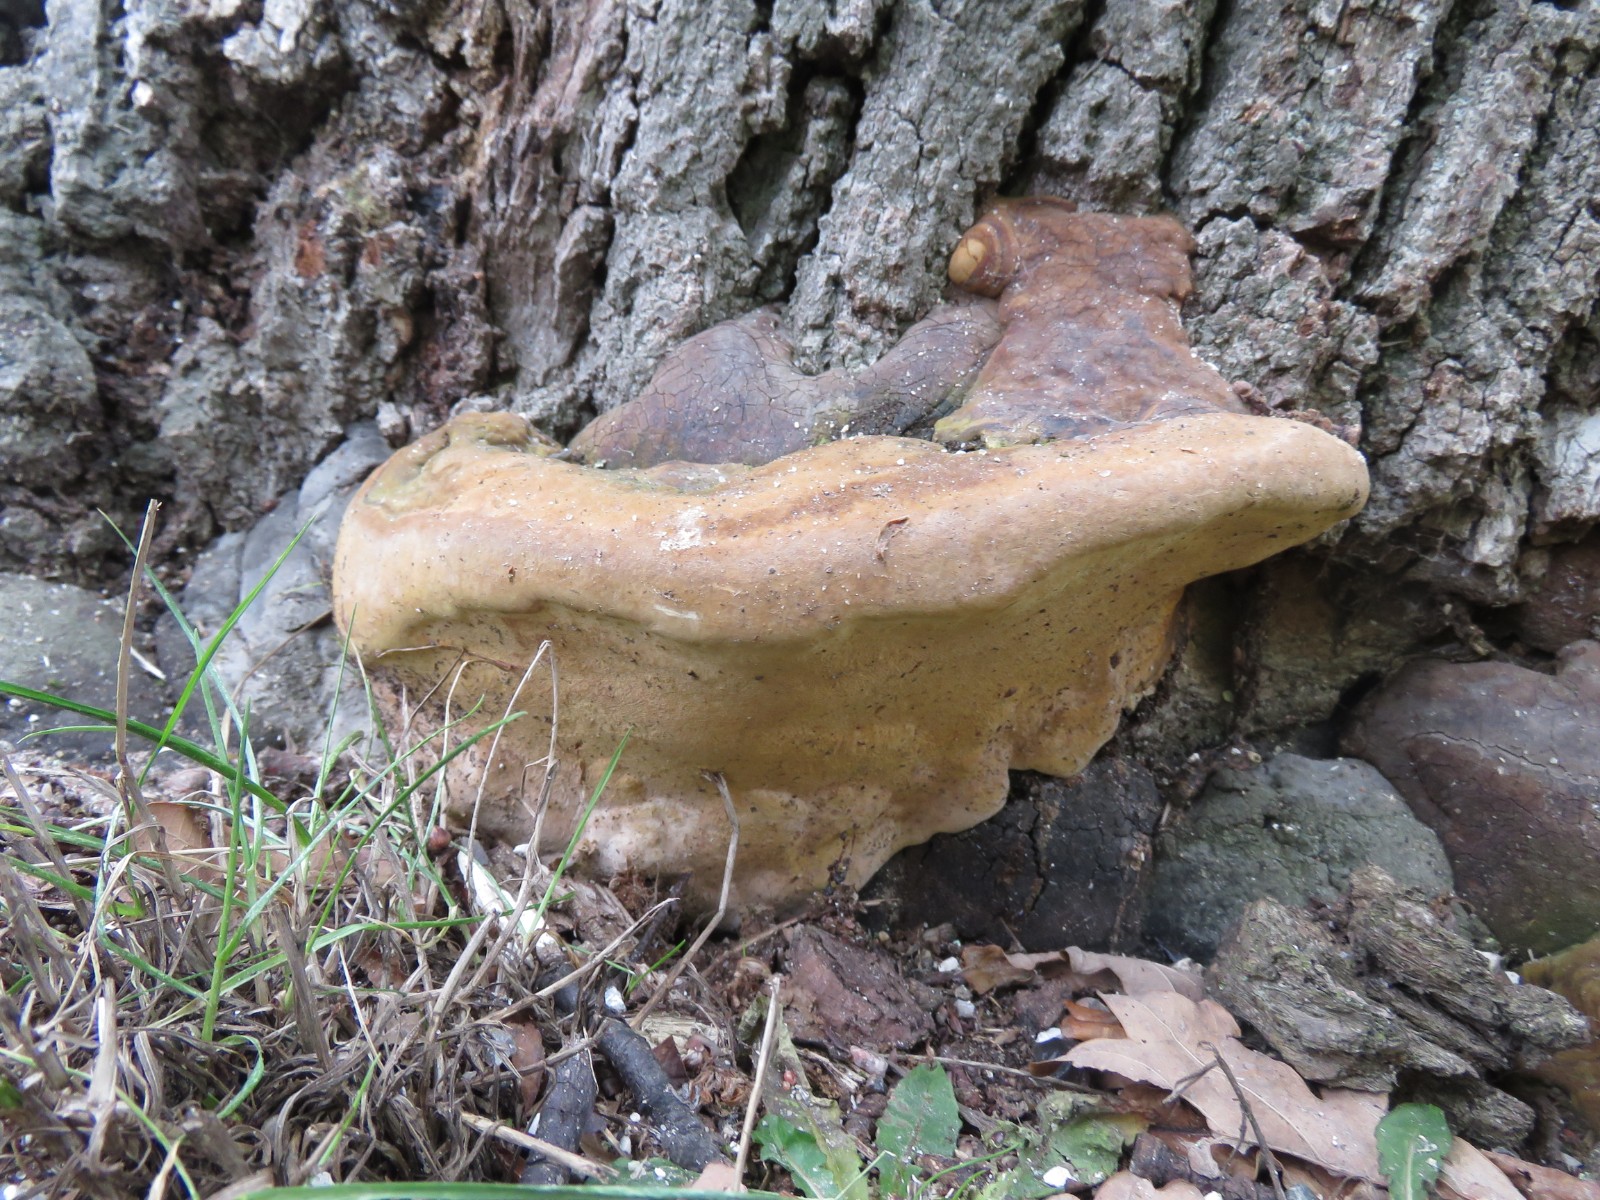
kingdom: Fungi
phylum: Basidiomycota
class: Agaricomycetes
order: Polyporales
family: Polyporaceae
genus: Ganoderma
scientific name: Ganoderma pfeifferi
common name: kobberrød lakporesvamp
